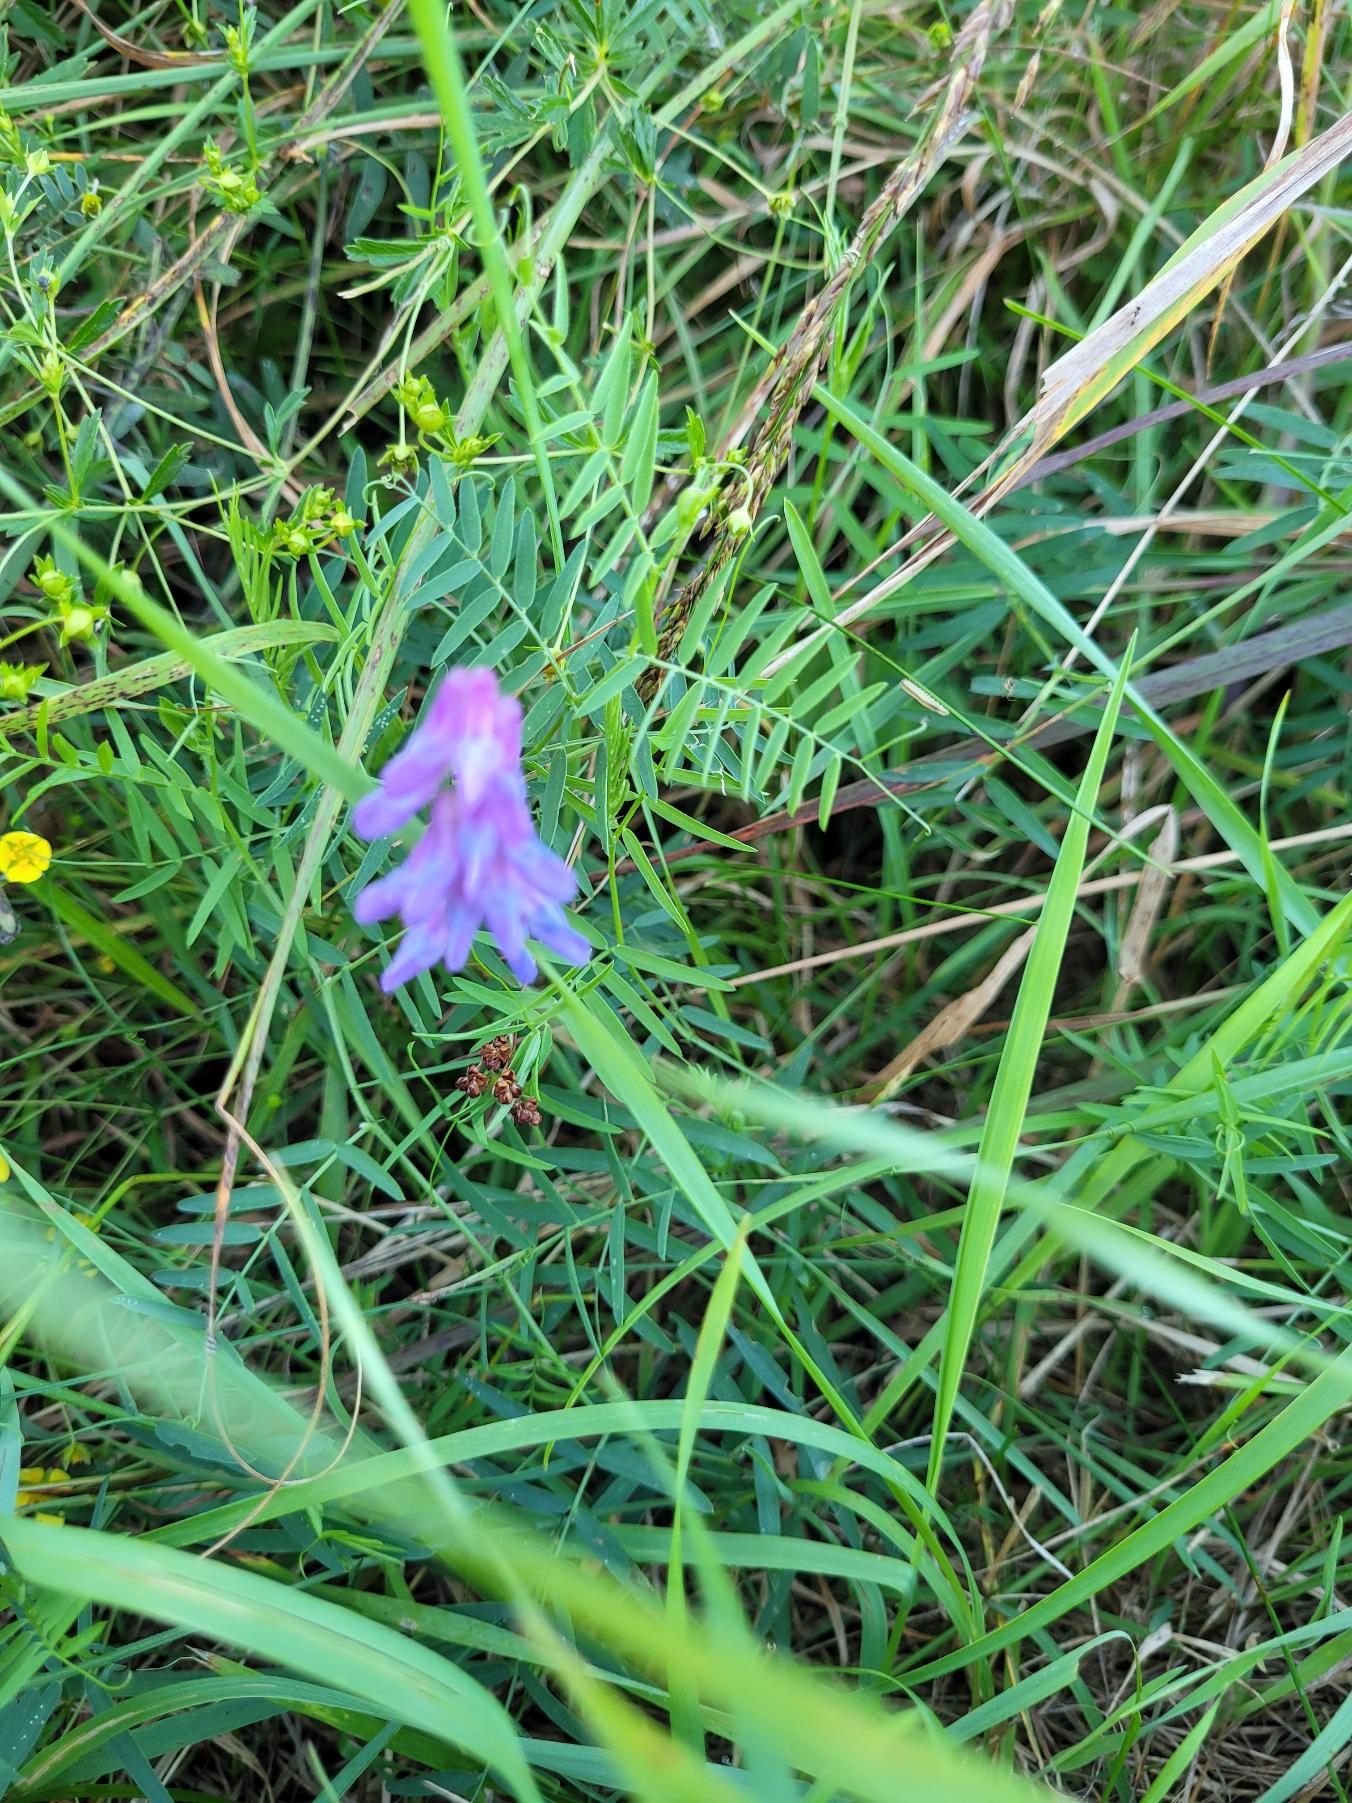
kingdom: Plantae
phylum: Tracheophyta
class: Magnoliopsida
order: Fabales
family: Fabaceae
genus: Vicia
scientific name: Vicia cracca
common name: Muse-vikke
